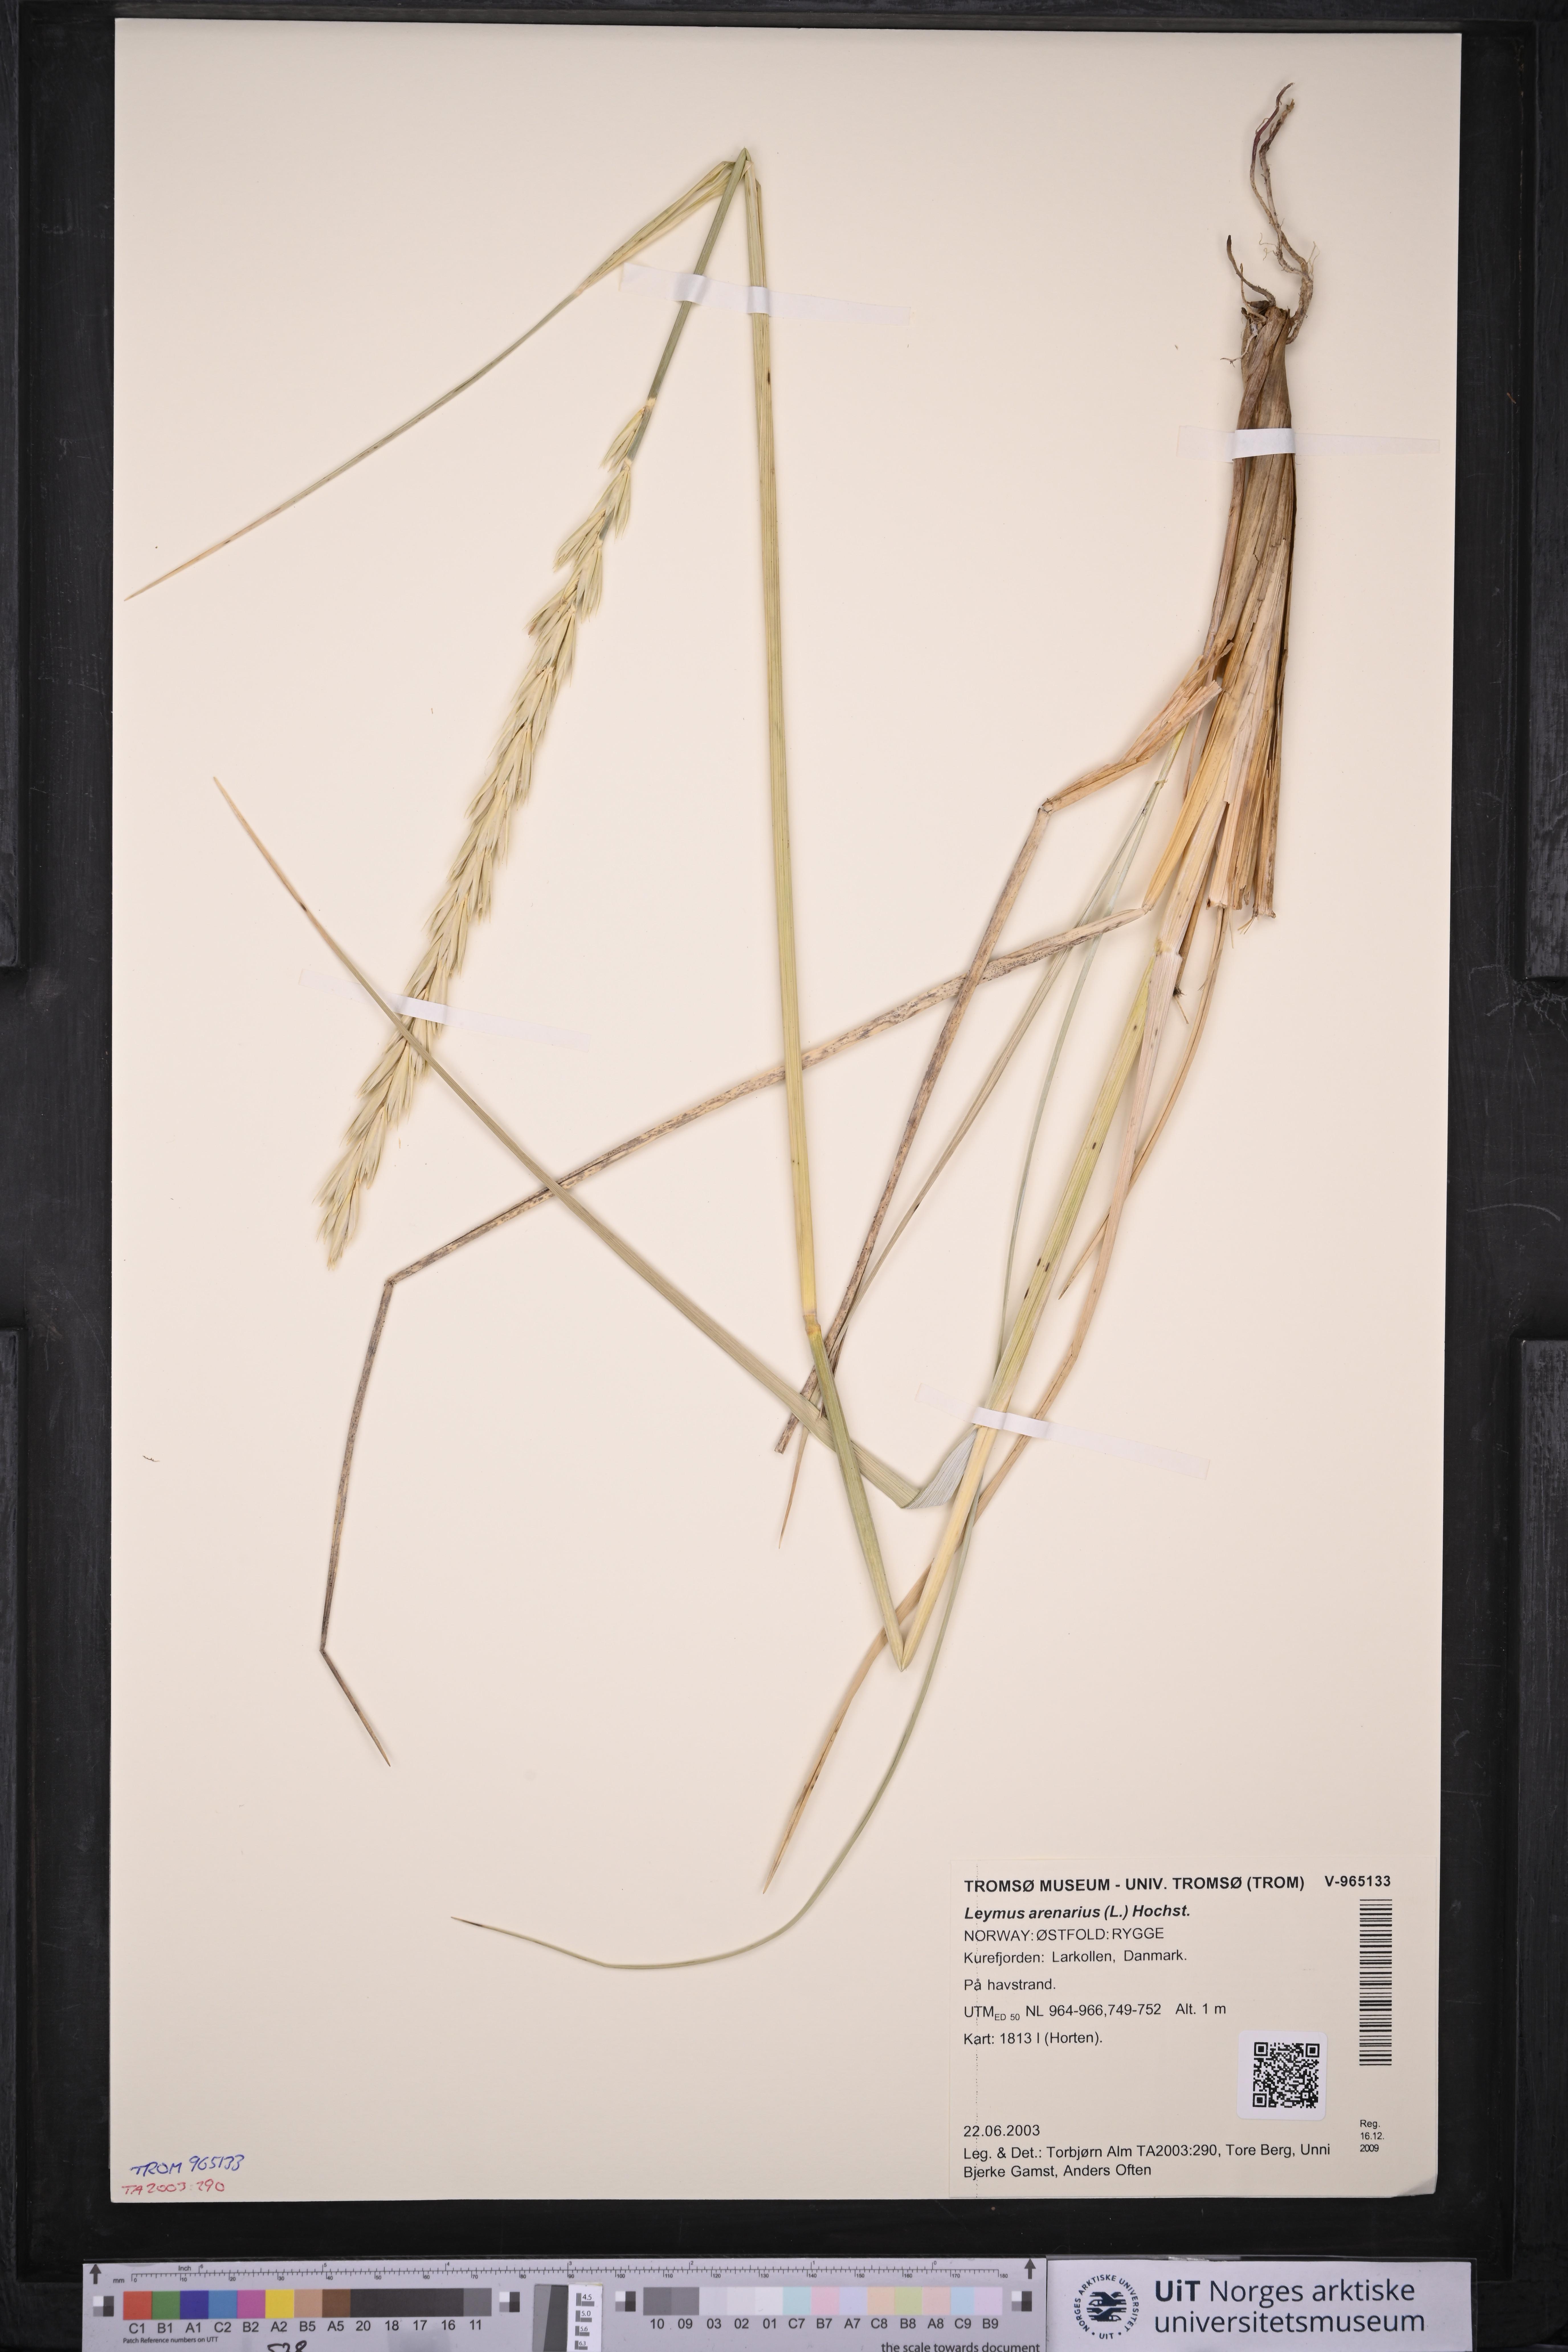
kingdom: Plantae
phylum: Tracheophyta
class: Liliopsida
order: Poales
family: Poaceae
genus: Leymus
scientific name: Leymus arenarius
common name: Lyme-grass
